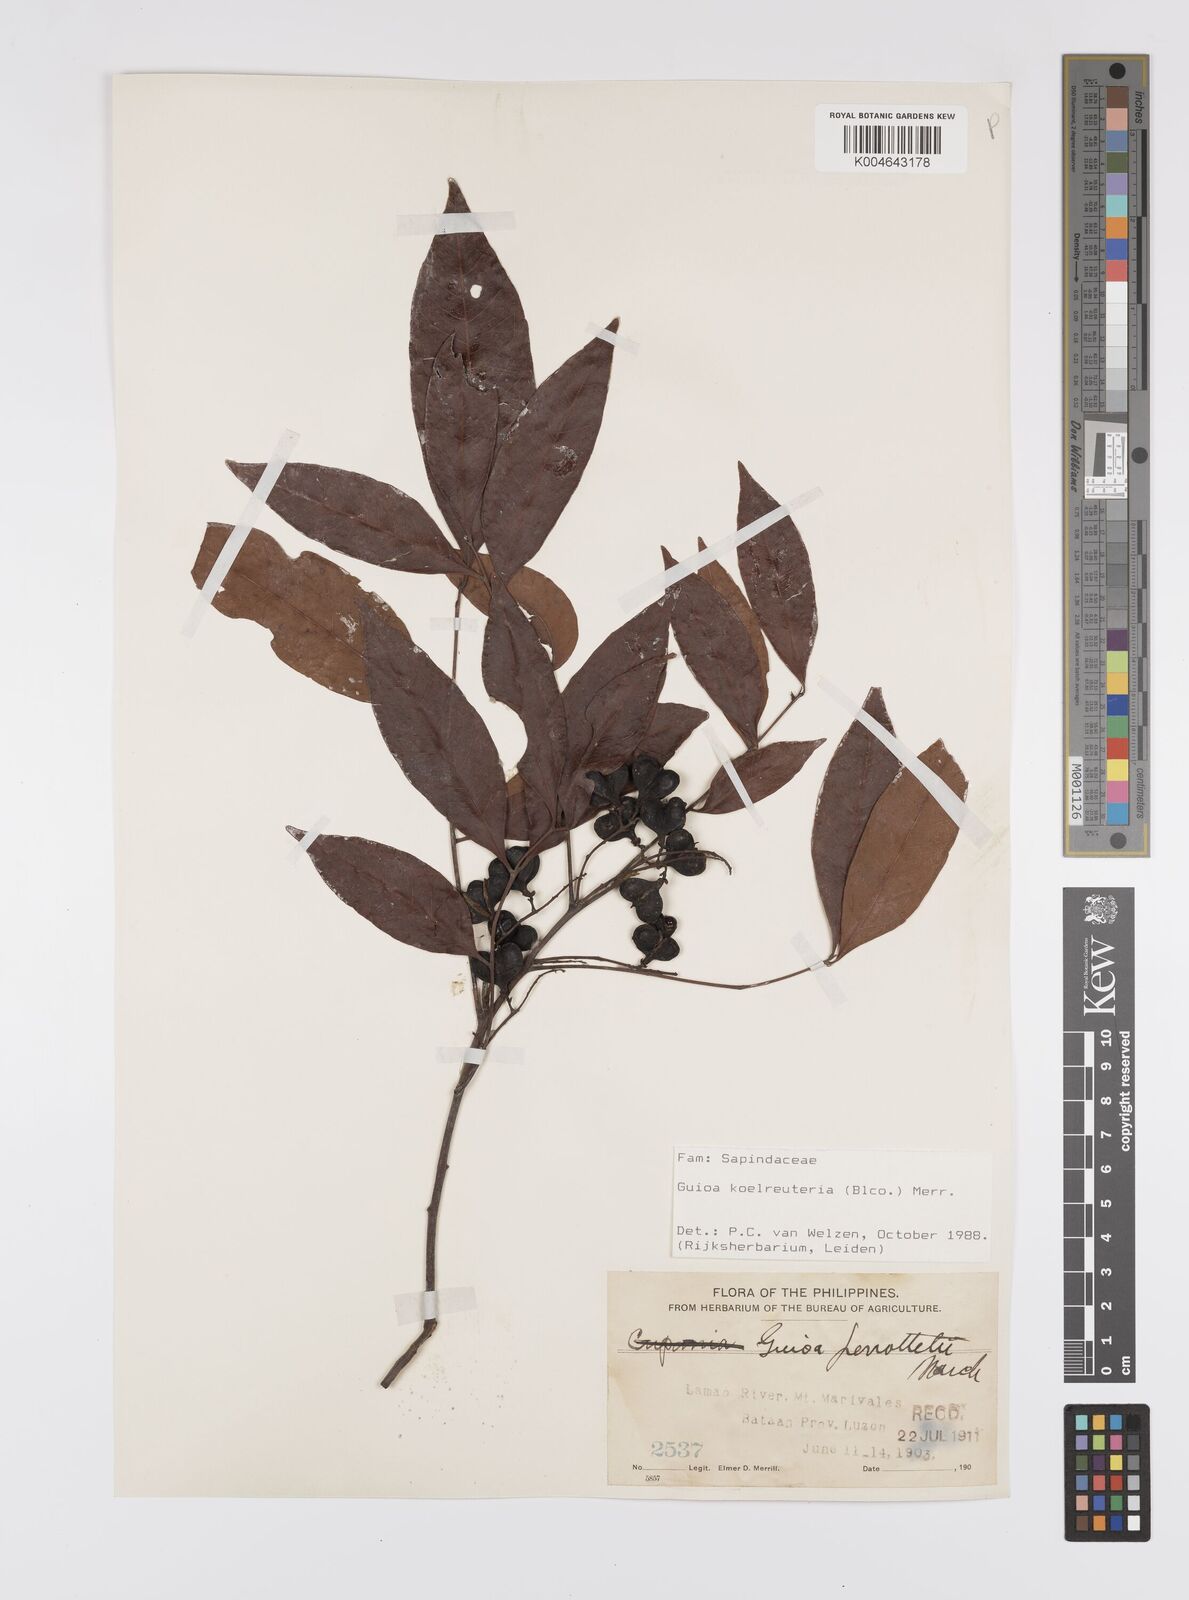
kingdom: Plantae
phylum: Tracheophyta
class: Magnoliopsida
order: Sapindales
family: Sapindaceae
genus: Guioa
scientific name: Guioa koelreuteria
